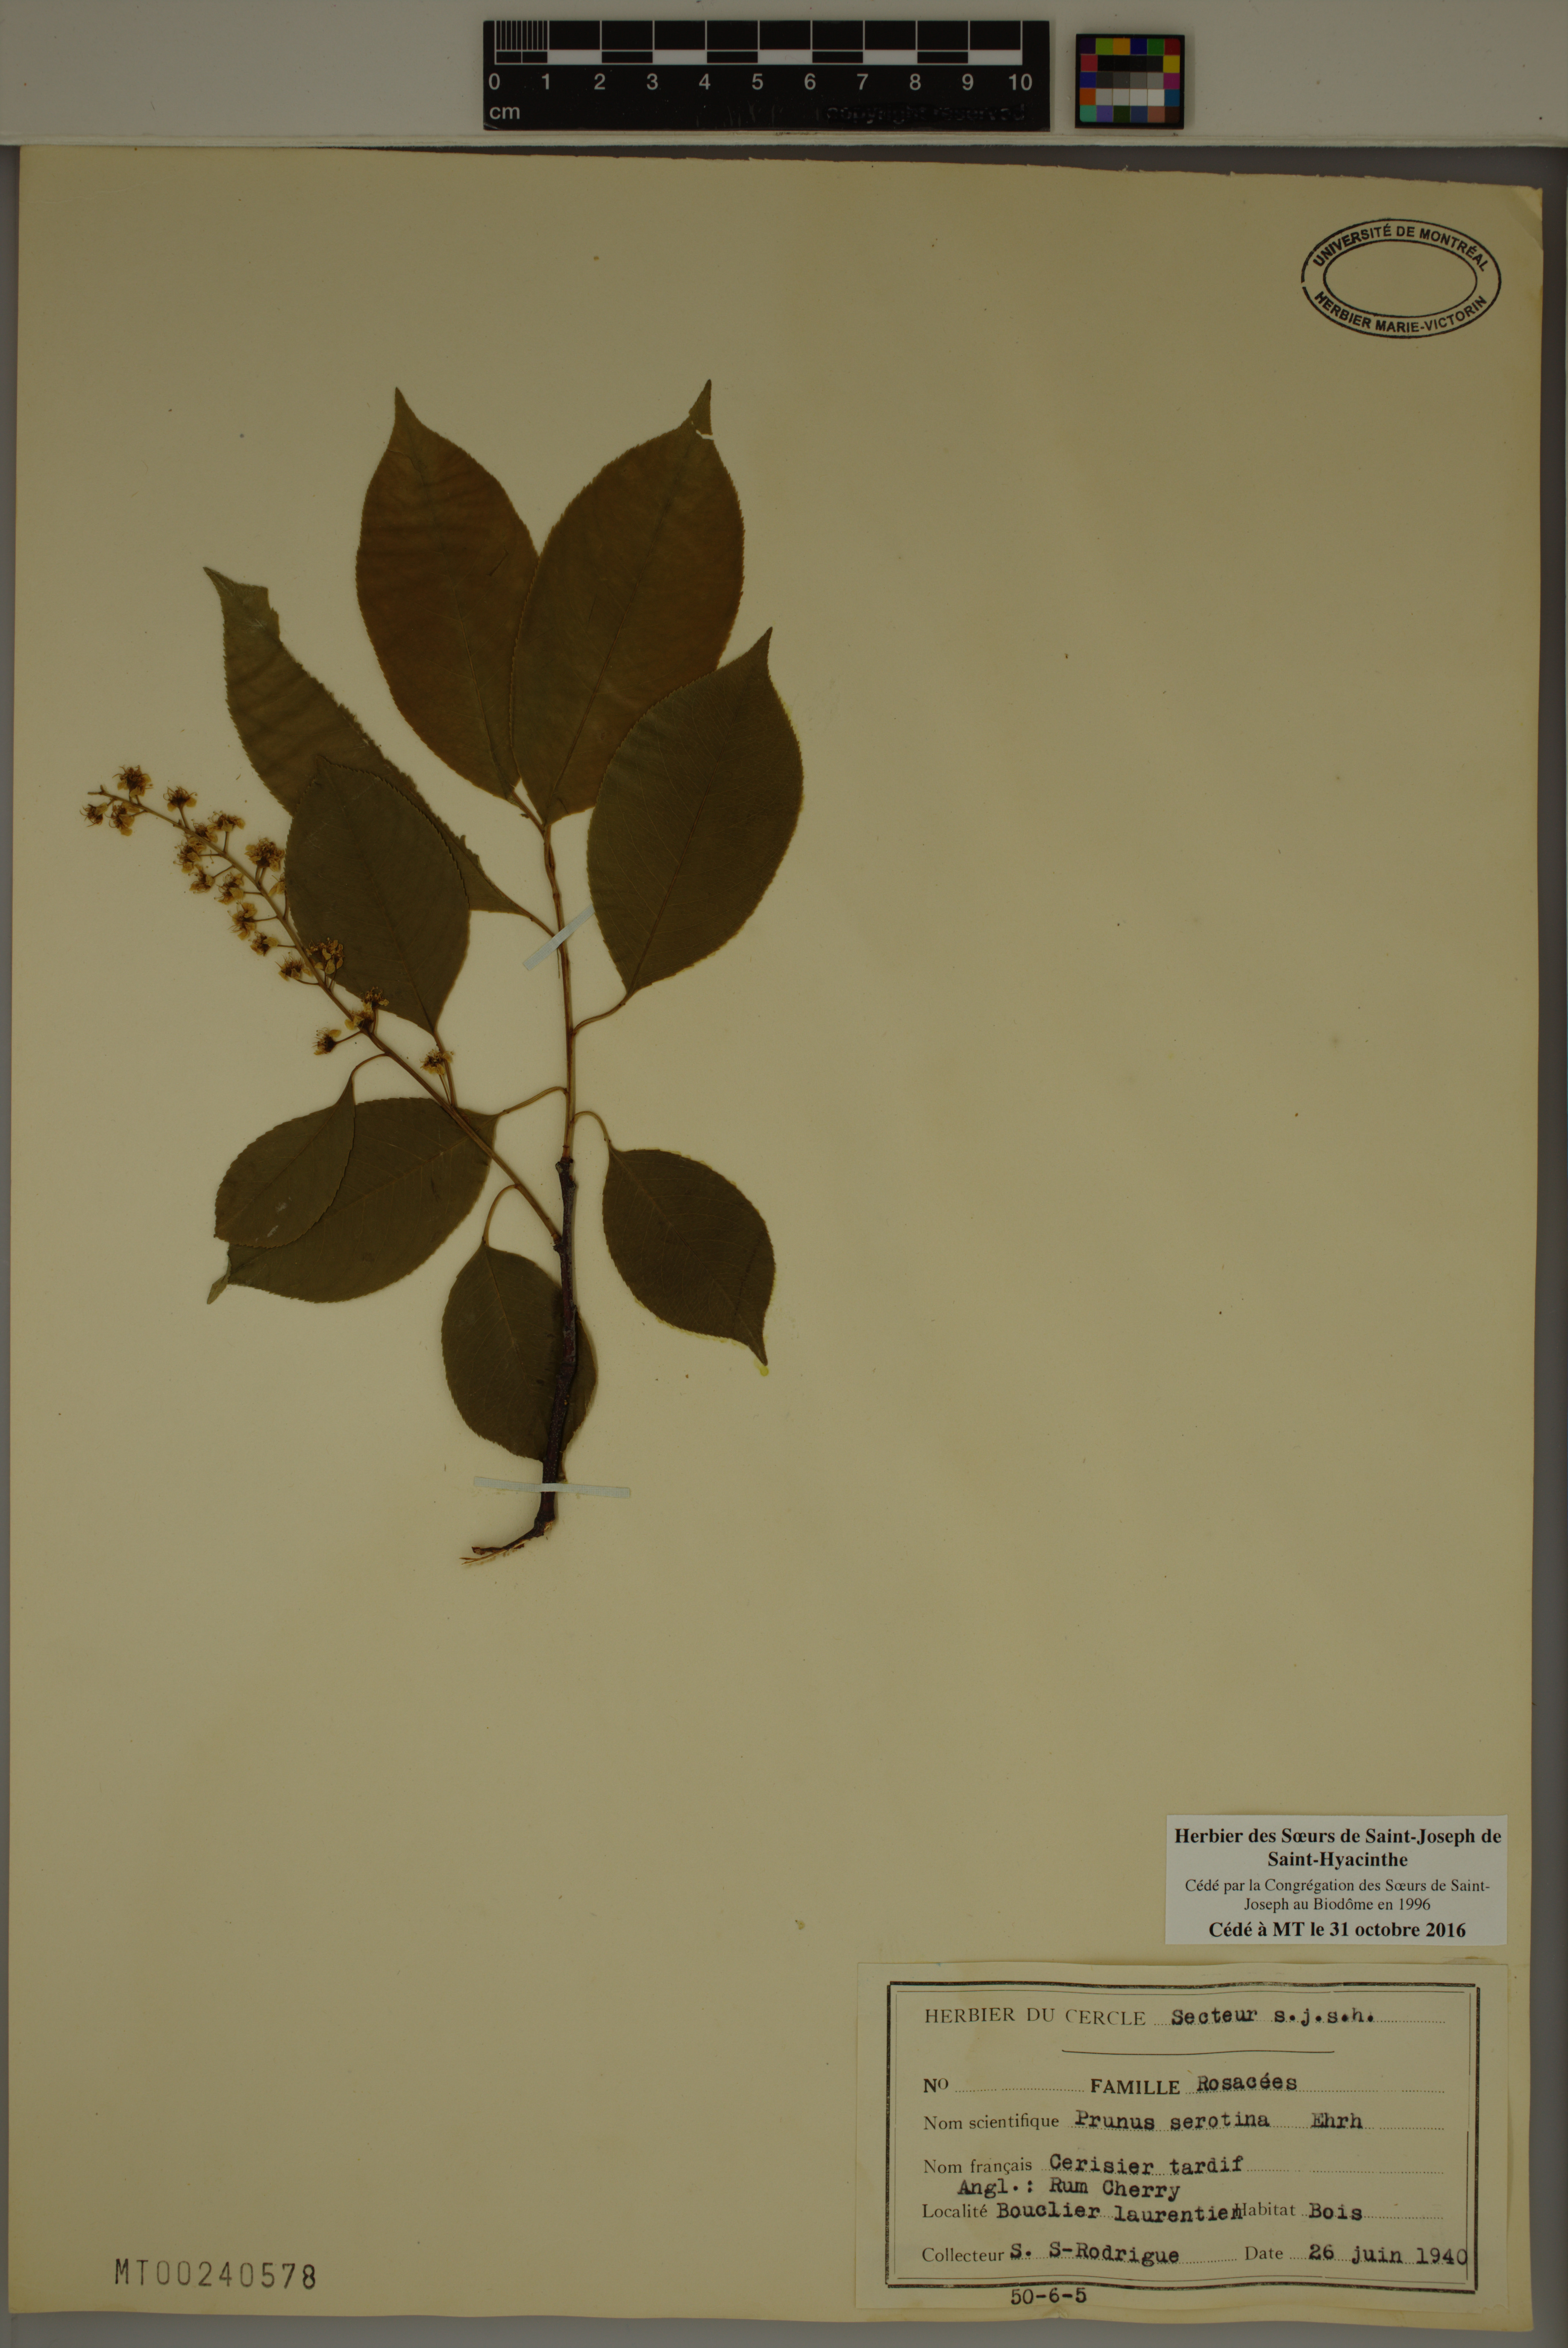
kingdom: Plantae
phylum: Tracheophyta
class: Magnoliopsida
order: Rosales
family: Rosaceae
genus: Prunus
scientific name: Prunus serotina
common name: Black cherry
